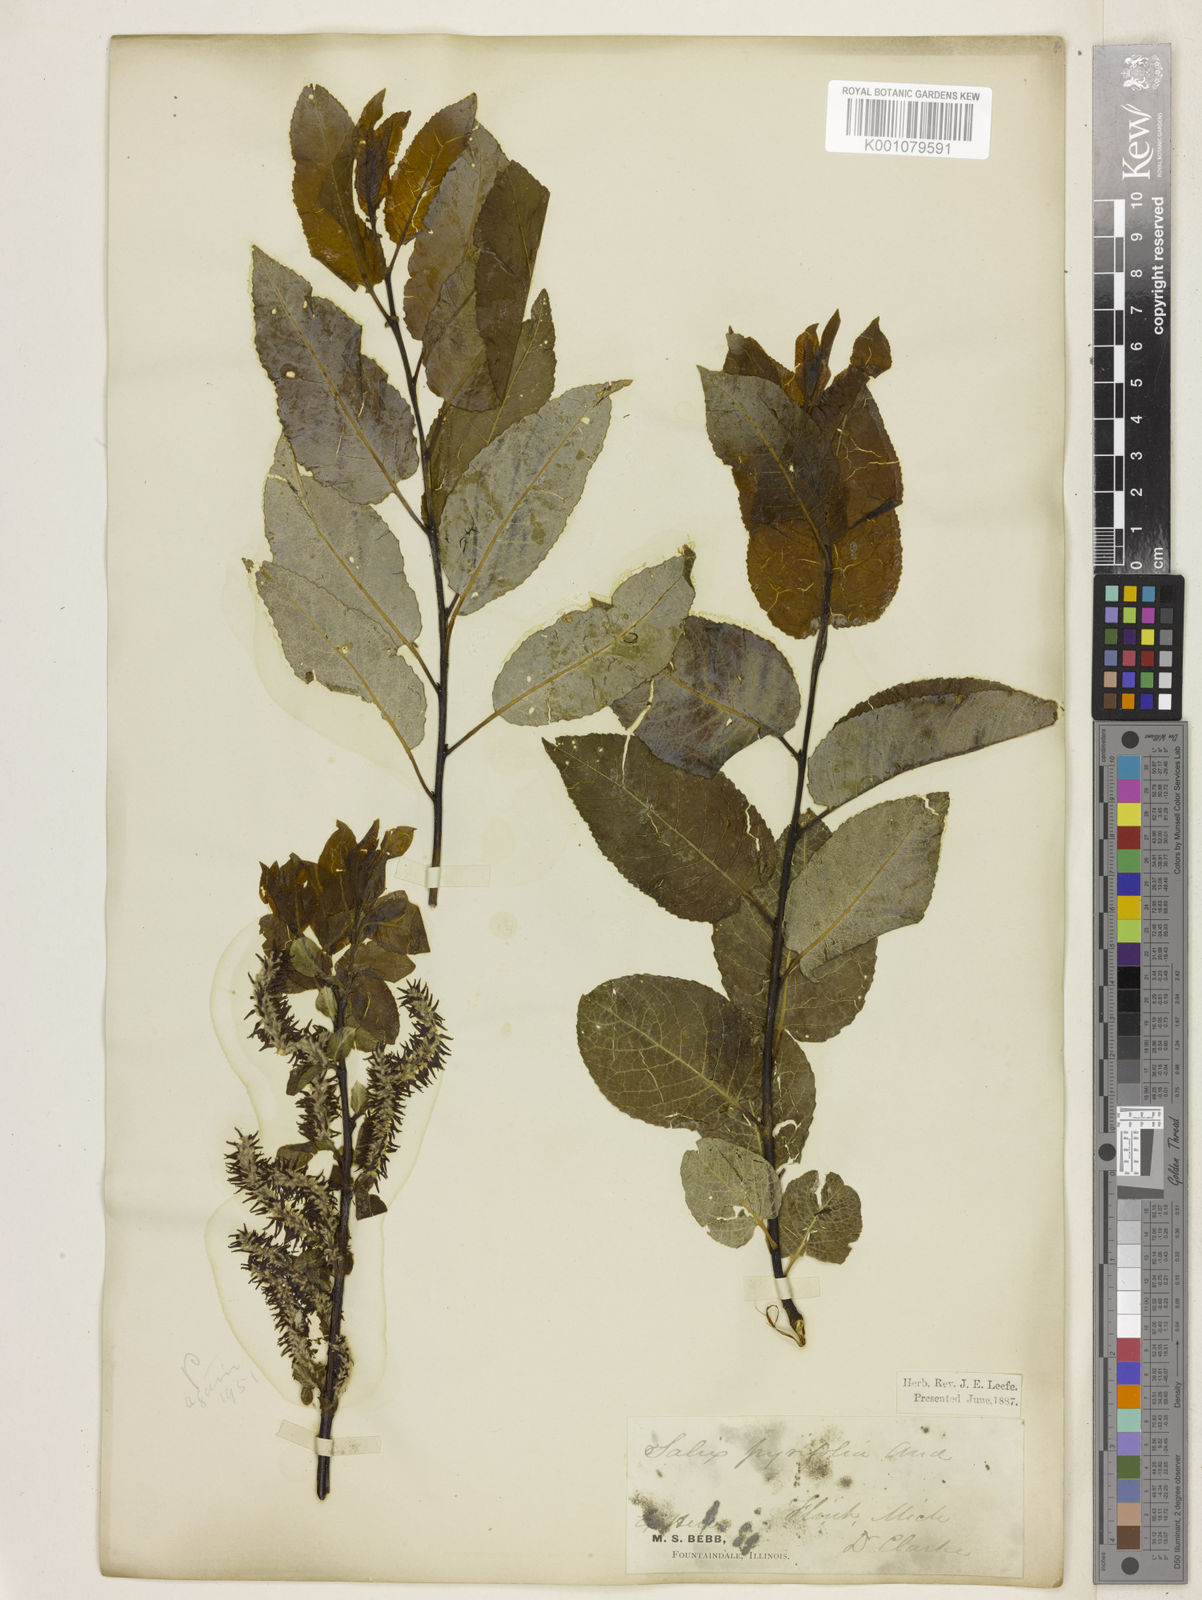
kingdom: Plantae
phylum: Tracheophyta
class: Magnoliopsida
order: Malpighiales
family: Salicaceae
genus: Salix
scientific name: Salix purpurea
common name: Purple willow
